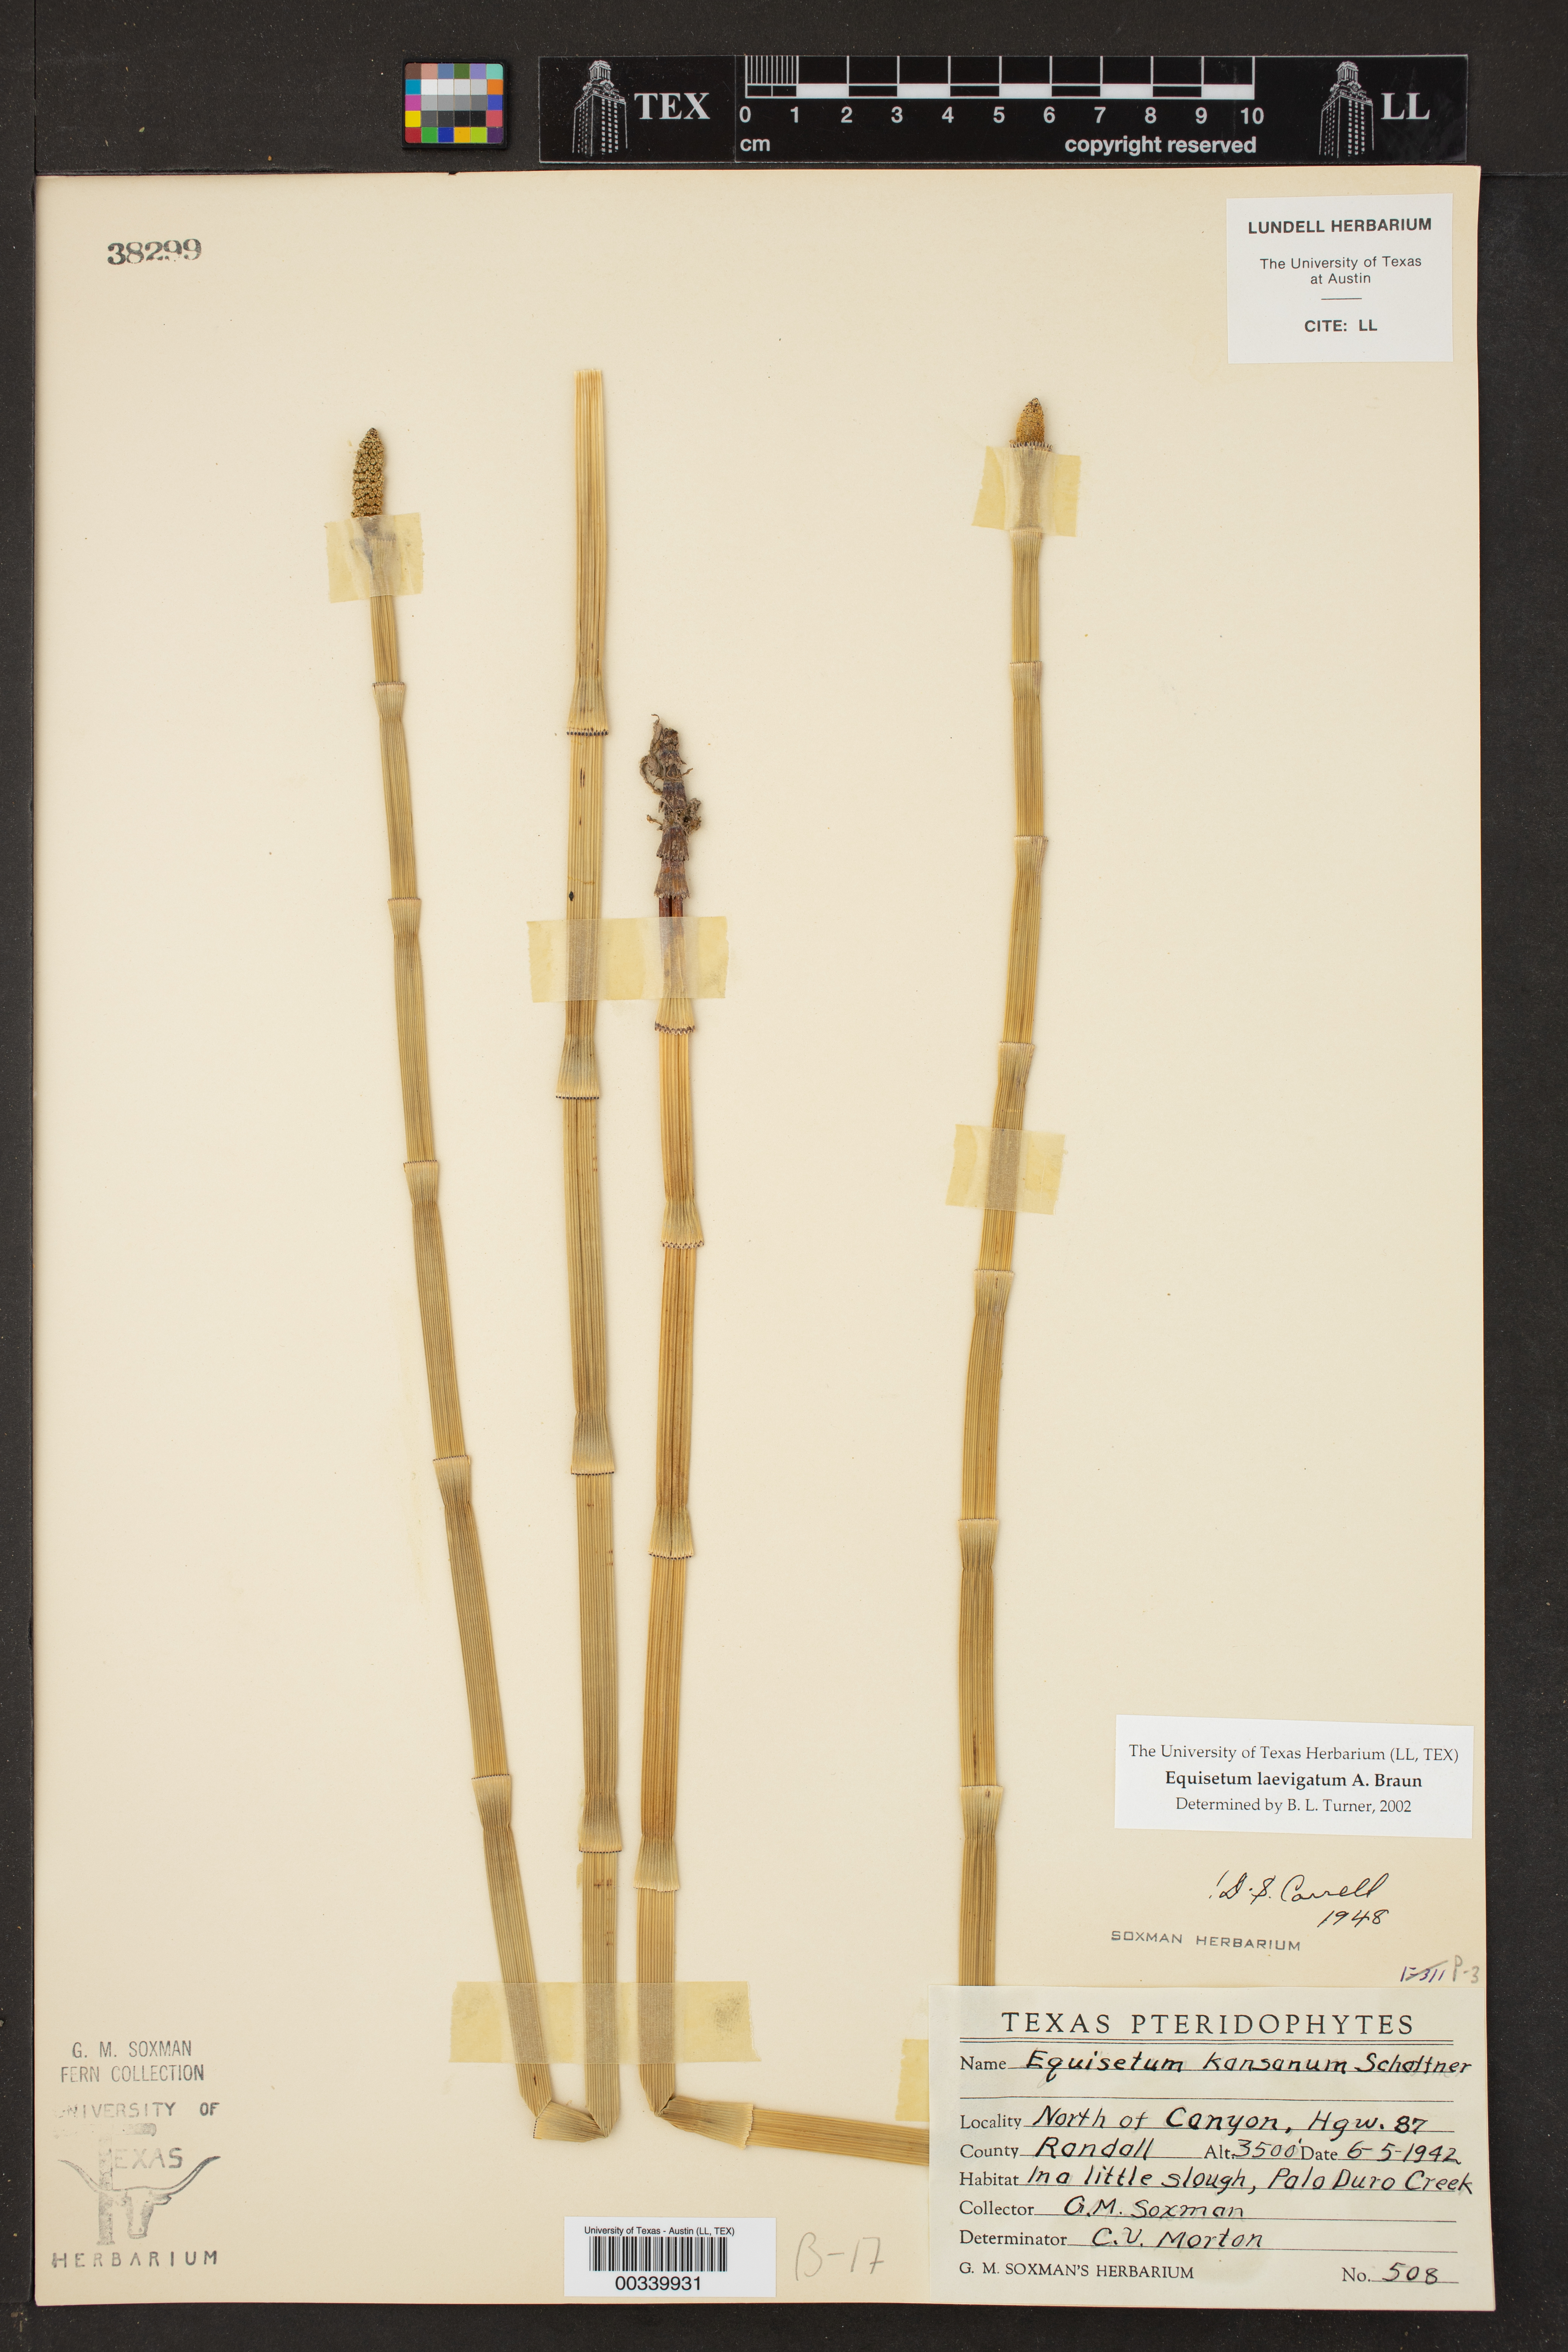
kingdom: Plantae
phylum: Tracheophyta
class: Polypodiopsida
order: Equisetales
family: Equisetaceae
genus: Equisetum
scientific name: Equisetum laevigatum
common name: Smooth scouring-rush
